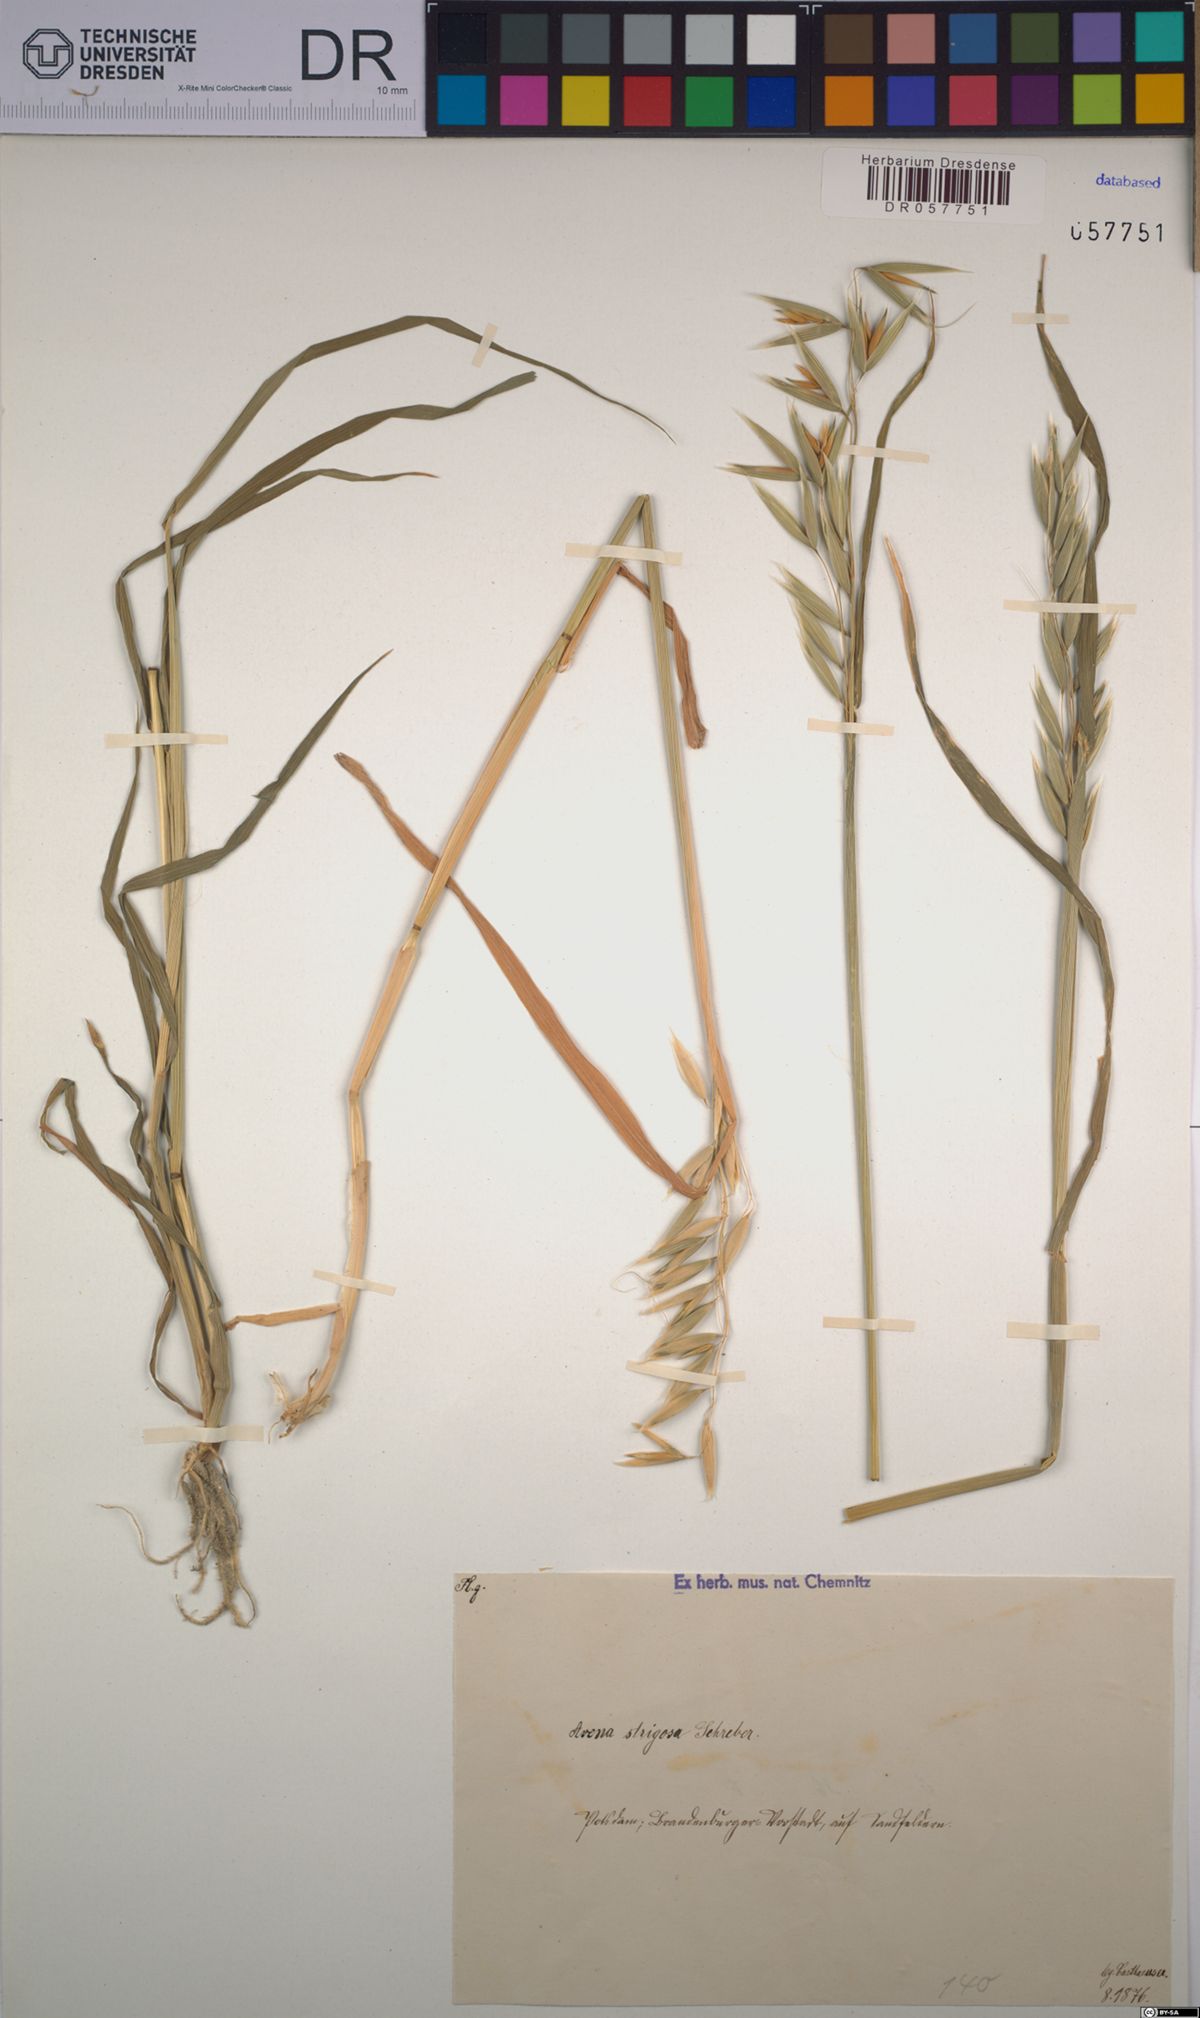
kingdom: Plantae
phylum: Tracheophyta
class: Liliopsida
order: Poales
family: Poaceae
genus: Avena
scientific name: Avena strigosa
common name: Bristle oat
